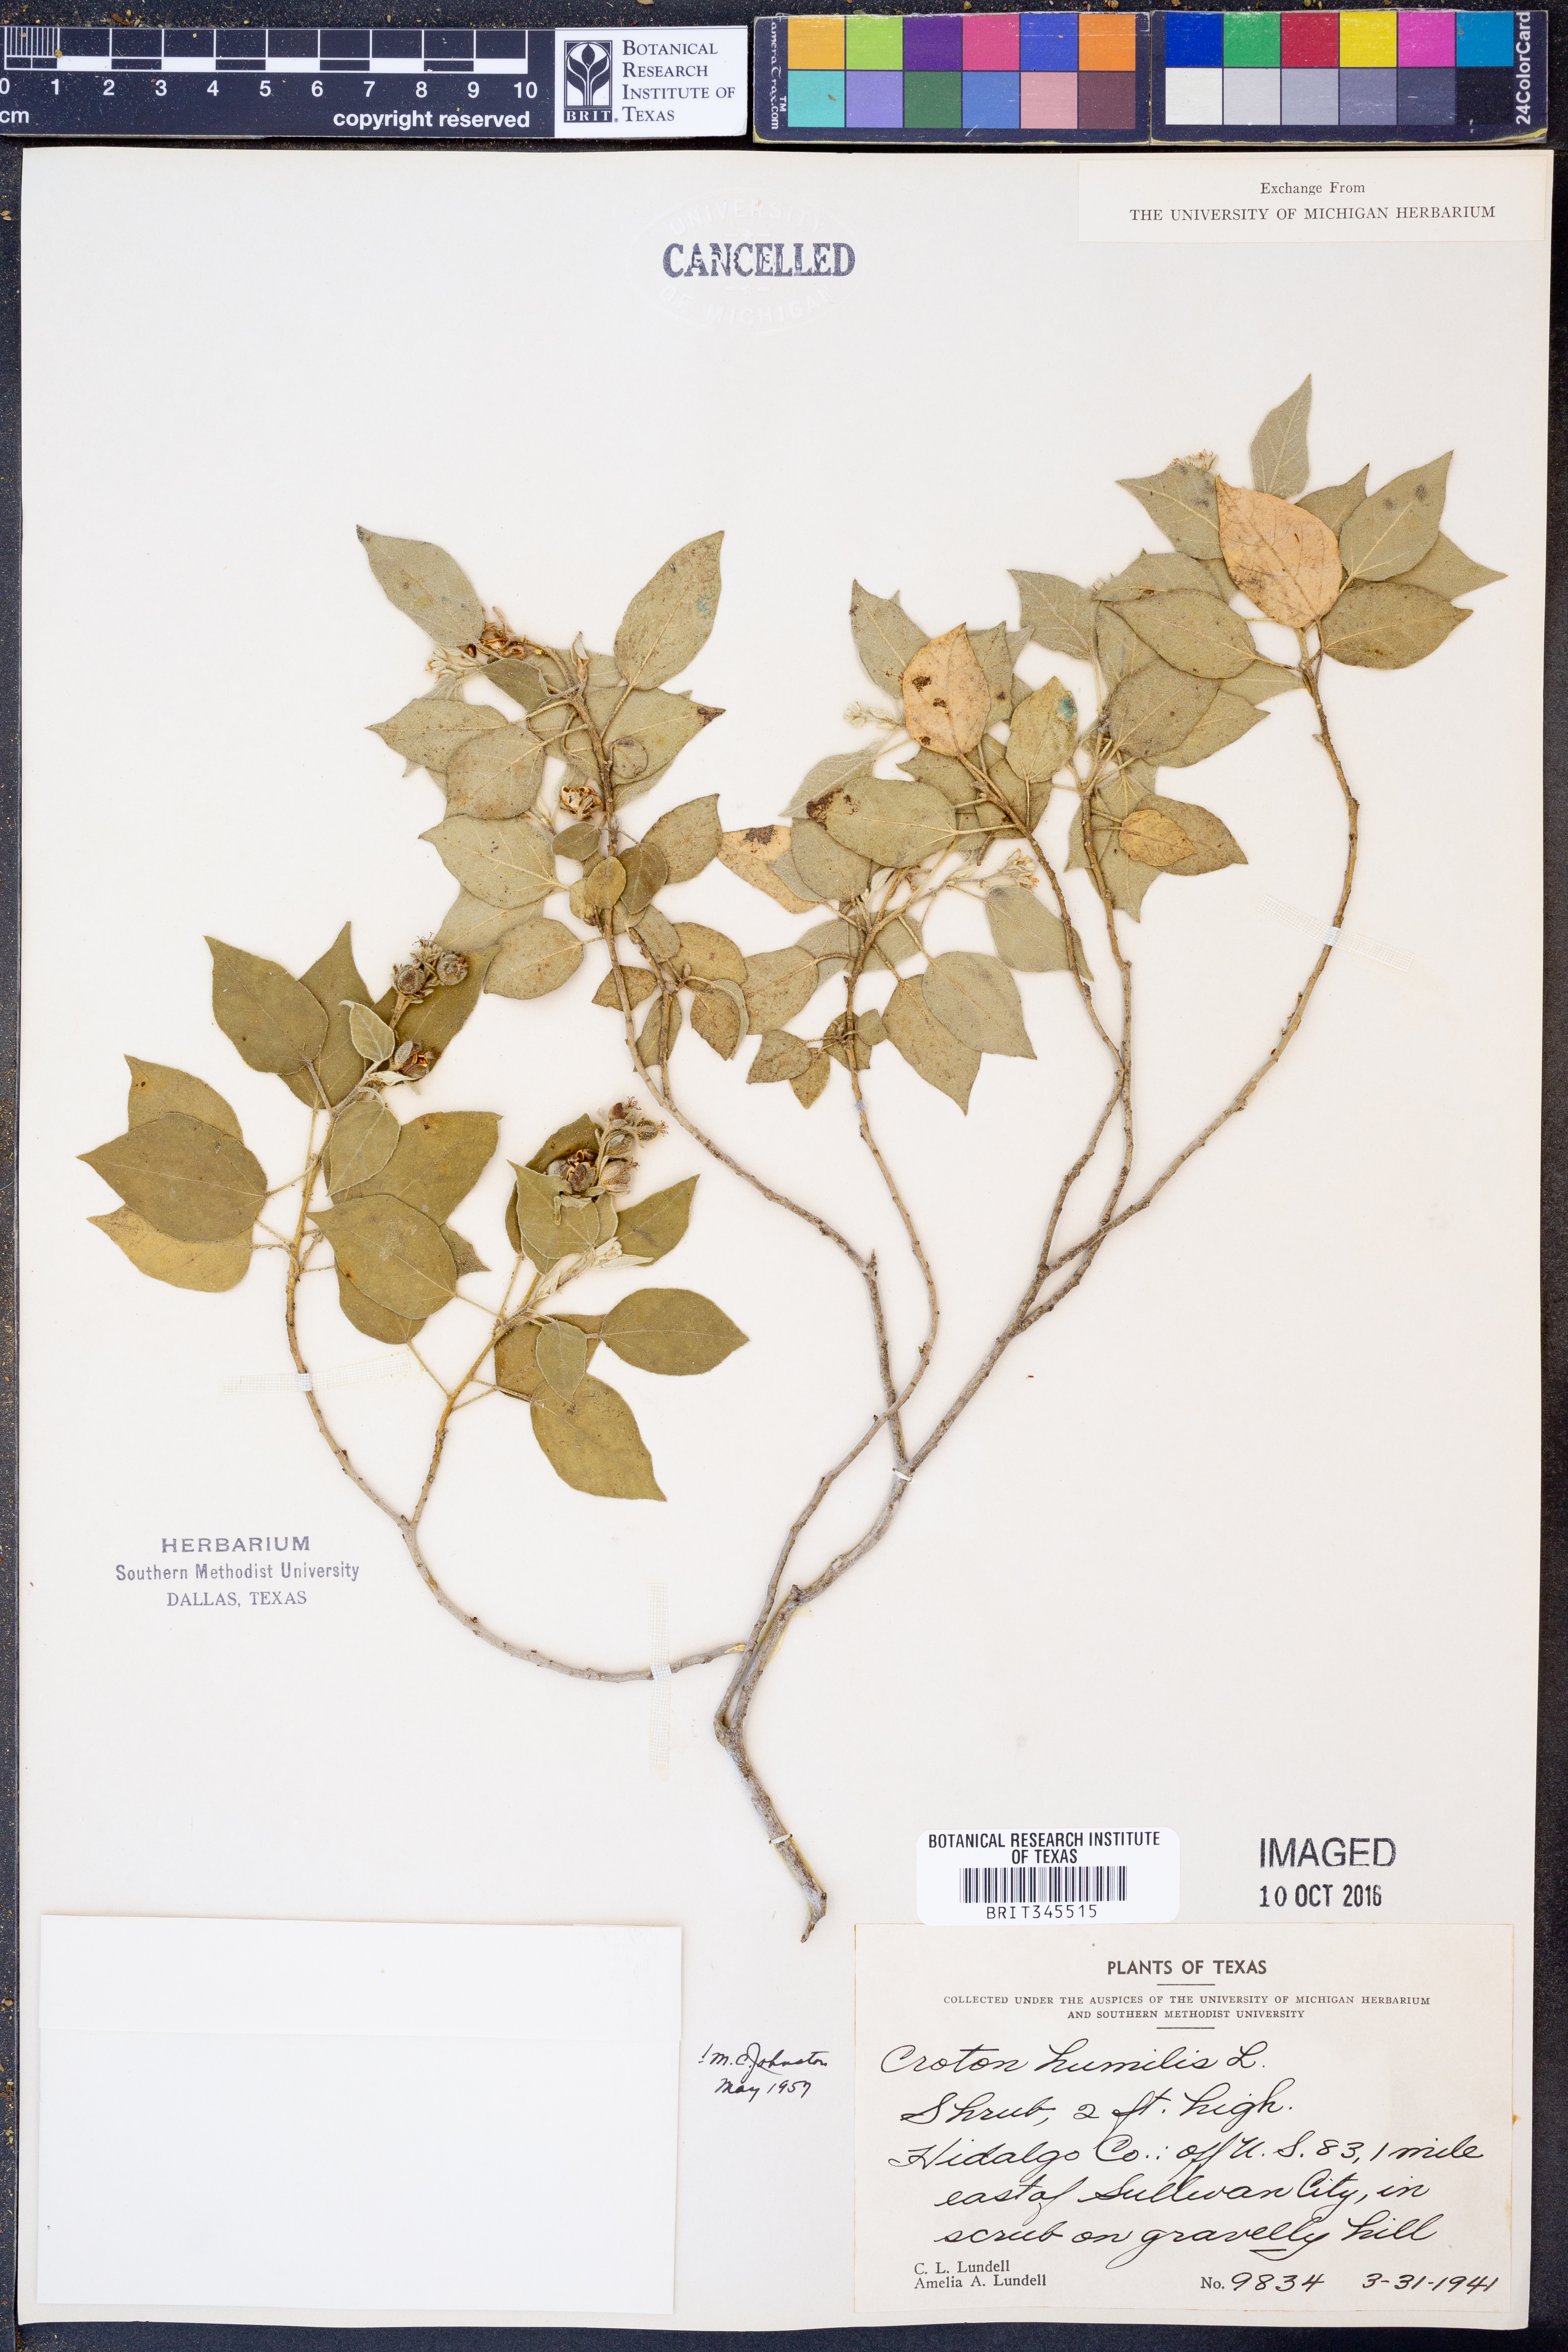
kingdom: Plantae
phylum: Tracheophyta
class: Magnoliopsida
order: Malpighiales
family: Euphorbiaceae
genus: Croton
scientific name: Croton humilis
